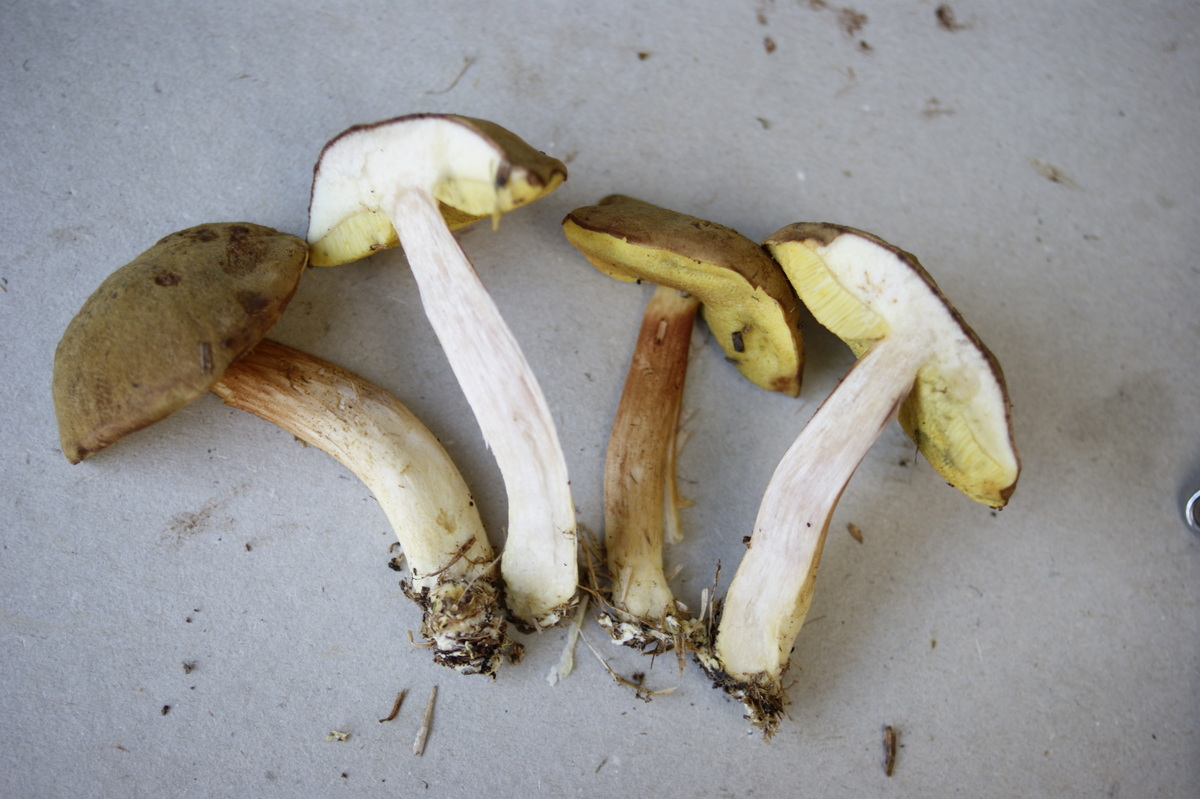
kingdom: Fungi
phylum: Basidiomycota
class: Agaricomycetes
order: Boletales
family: Boletaceae
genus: Xerocomus
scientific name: Xerocomus ferrugineus
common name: vaskeskinds-rørhat
